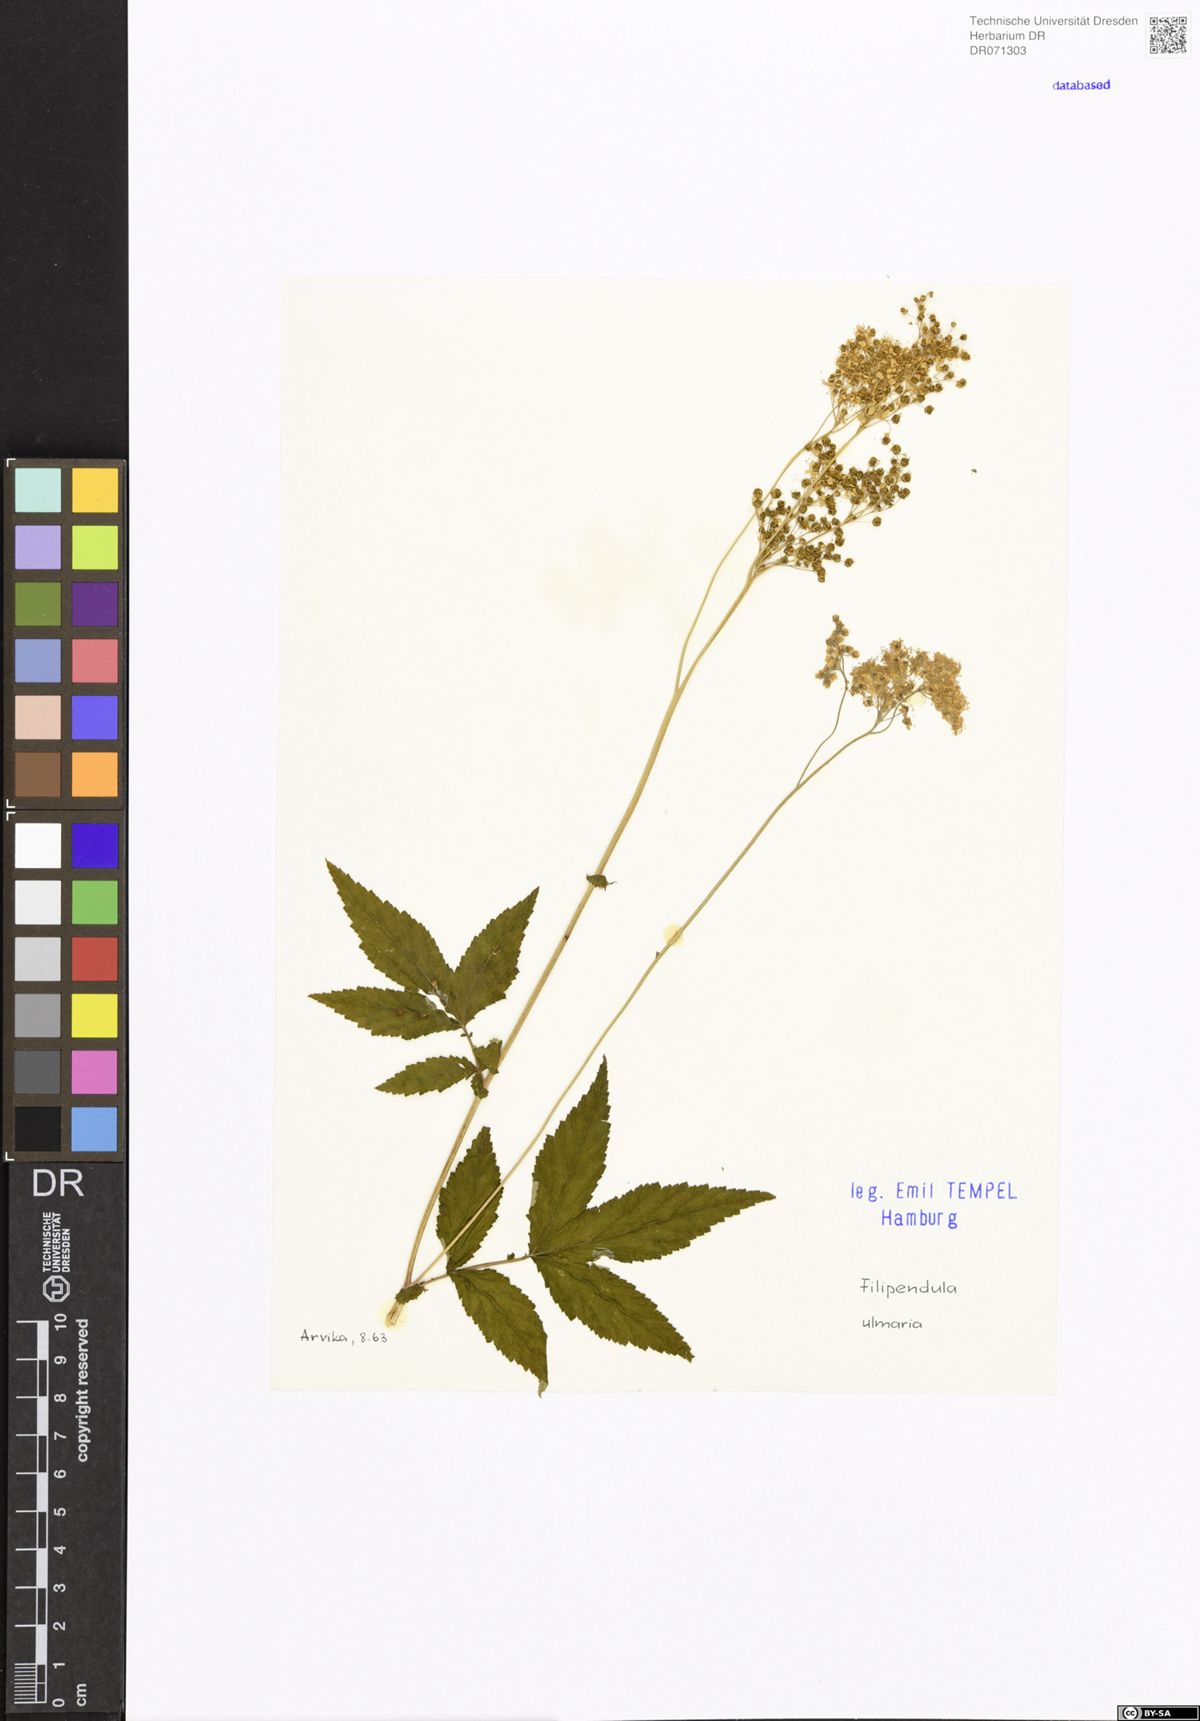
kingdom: Plantae
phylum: Tracheophyta
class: Magnoliopsida
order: Rosales
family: Rosaceae
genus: Filipendula
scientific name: Filipendula ulmaria
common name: Meadowsweet
